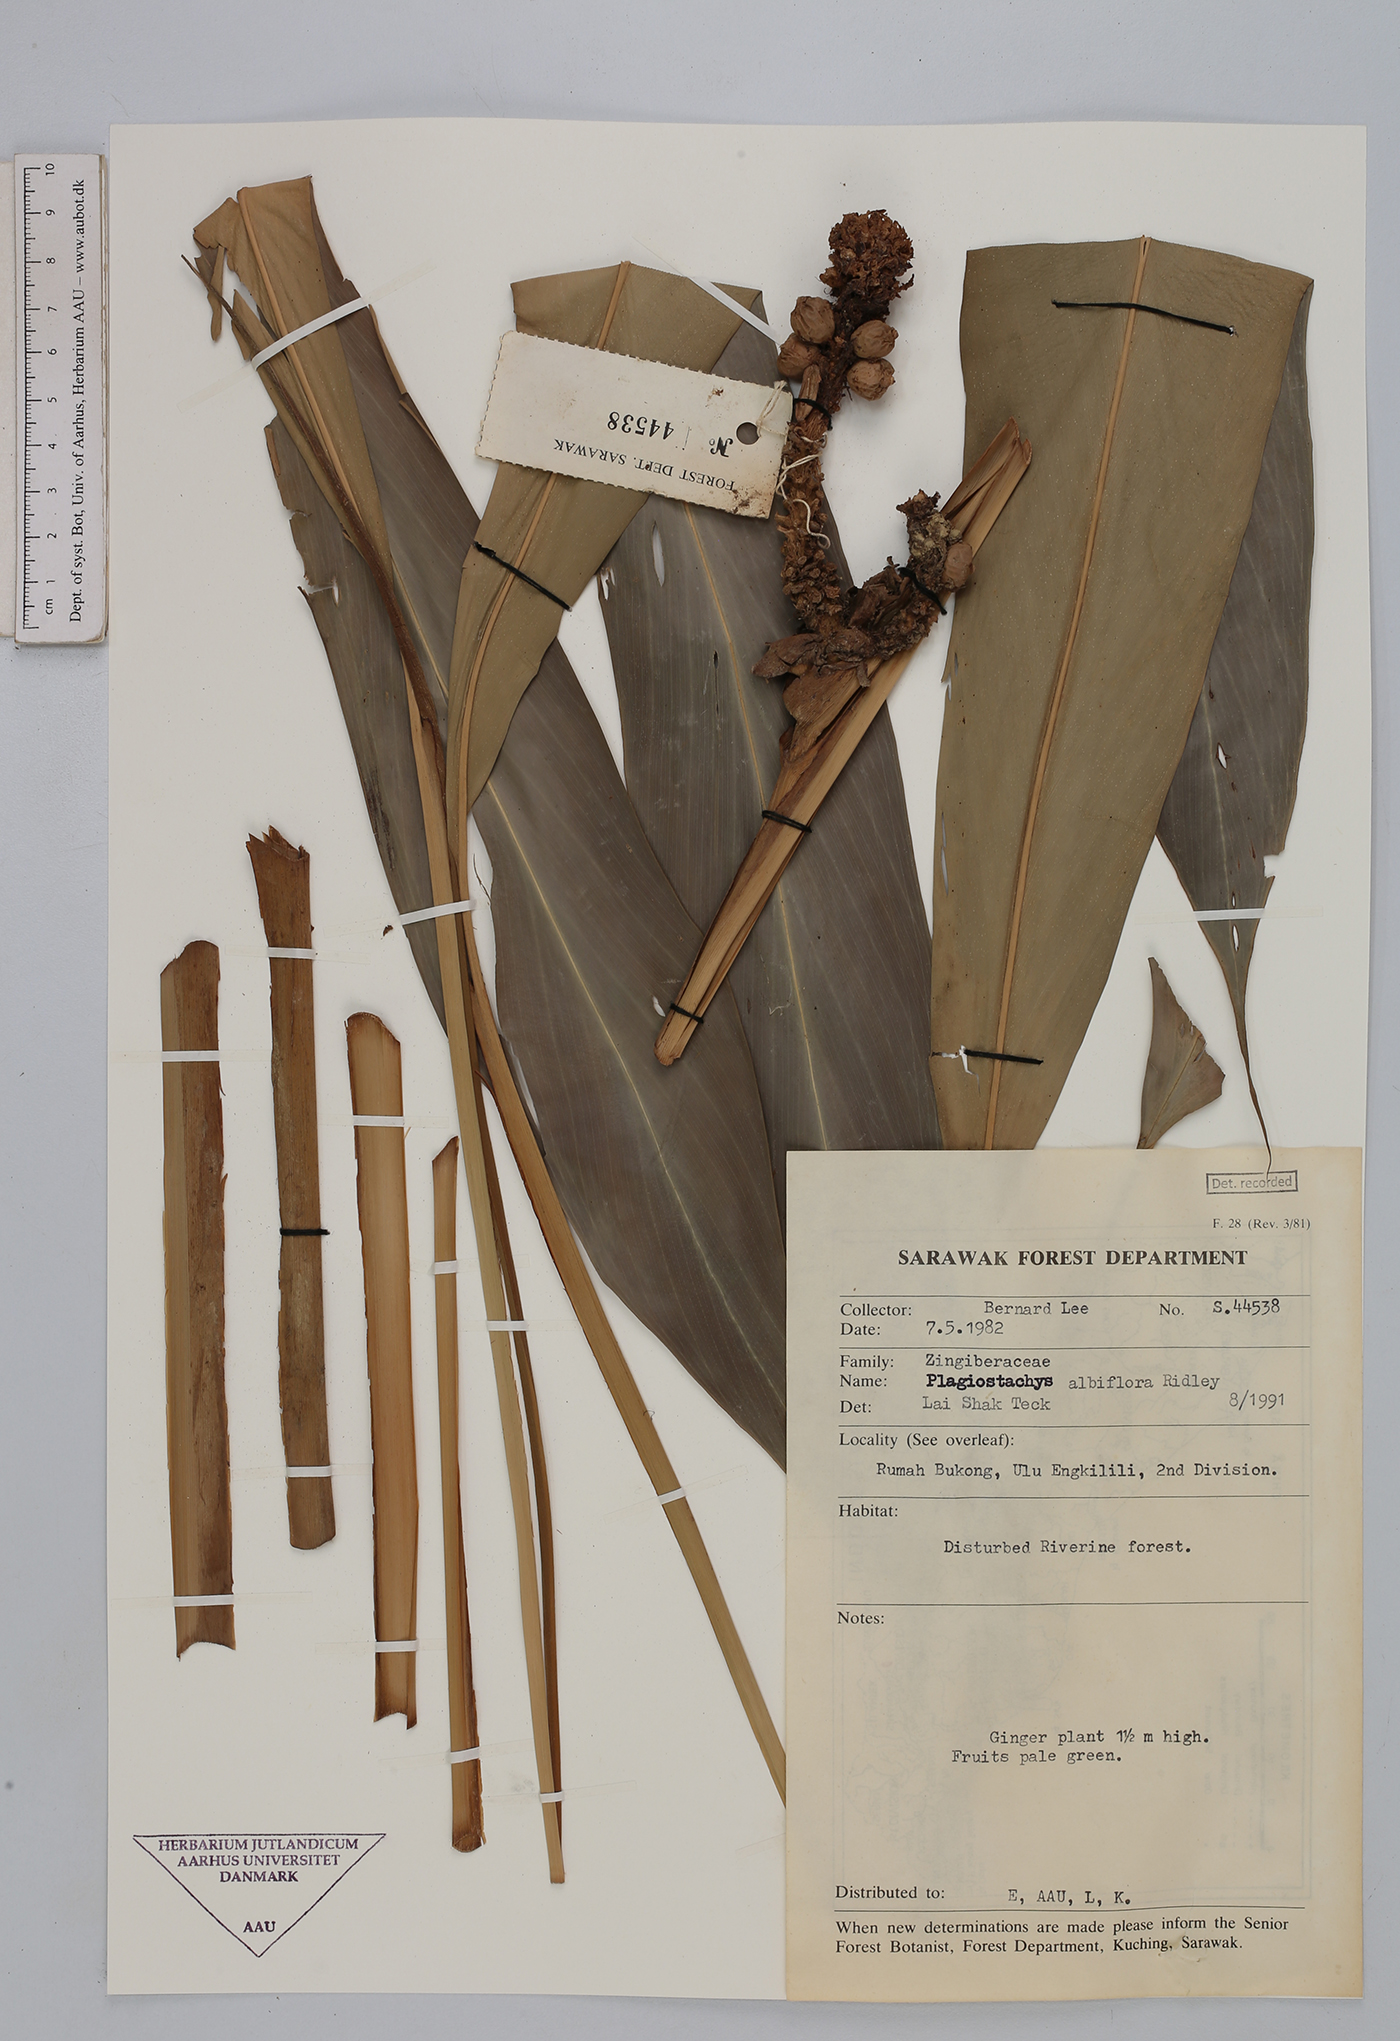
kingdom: Plantae
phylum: Tracheophyta
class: Liliopsida
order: Zingiberales
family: Zingiberaceae
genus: Plagiostachys
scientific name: Plagiostachys albiflora
